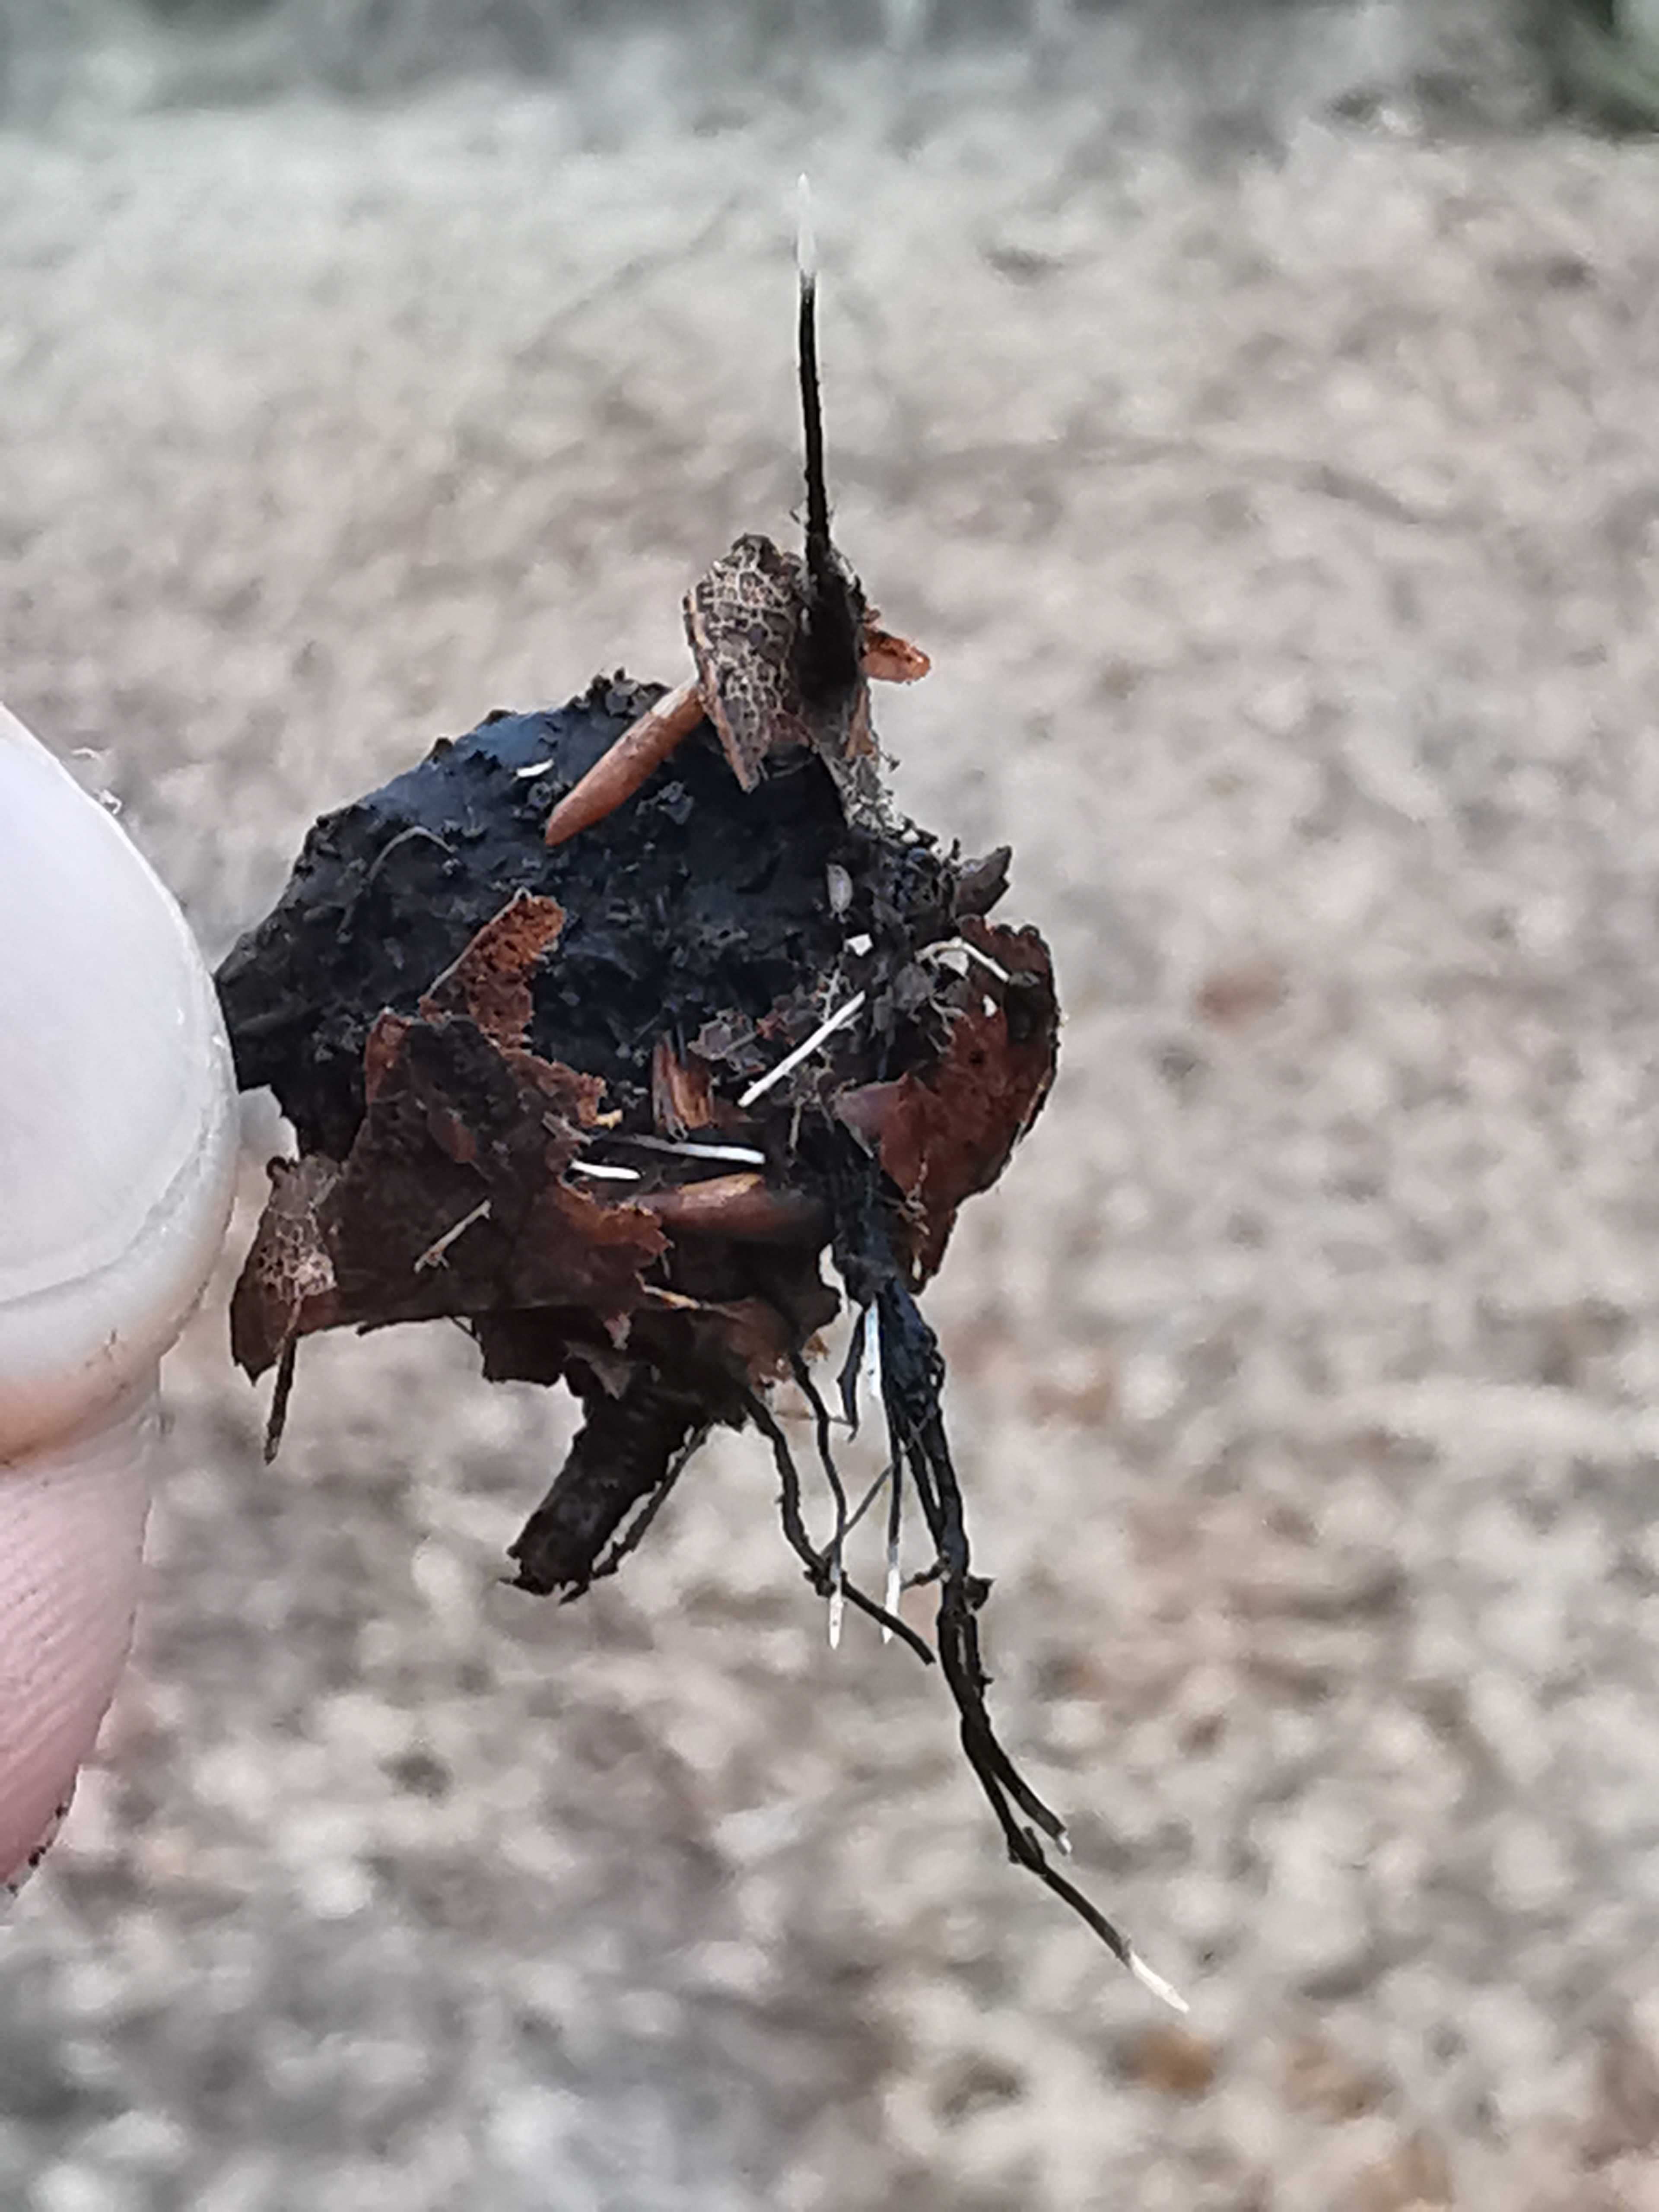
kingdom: Fungi
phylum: Ascomycota
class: Sordariomycetes
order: Xylariales
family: Xylariaceae
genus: Xylaria
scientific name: Xylaria carpophila
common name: bogskål-stødsvamp
